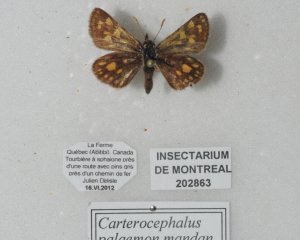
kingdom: Animalia
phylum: Arthropoda
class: Insecta
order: Lepidoptera
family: Hesperiidae
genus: Carterocephalus
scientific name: Carterocephalus palaemon
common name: Chequered Skipper
